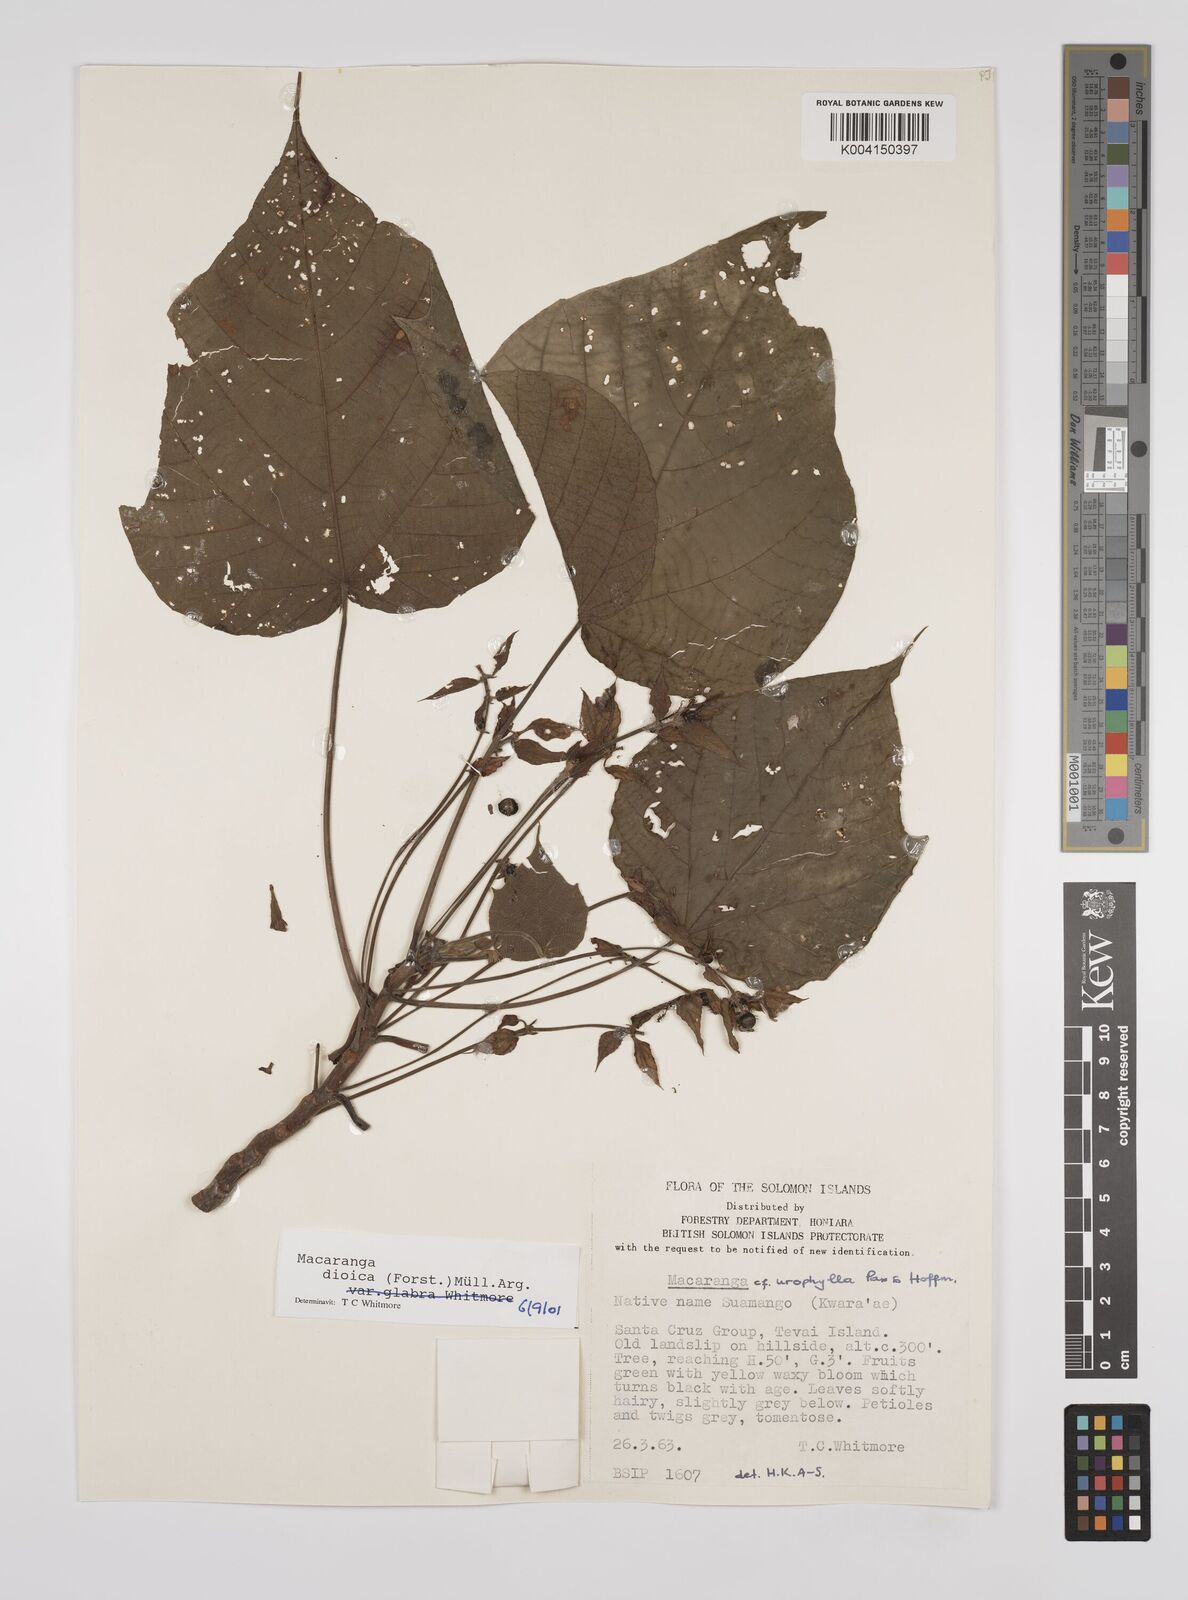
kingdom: Plantae
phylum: Tracheophyta
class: Magnoliopsida
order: Malpighiales
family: Euphorbiaceae
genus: Macaranga
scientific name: Macaranga dioica
